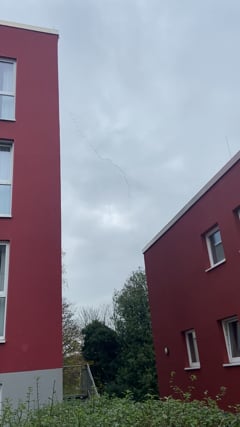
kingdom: Animalia
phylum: Chordata
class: Aves
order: Gruiformes
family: Gruidae
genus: Grus
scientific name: Grus grus
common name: Common crane
